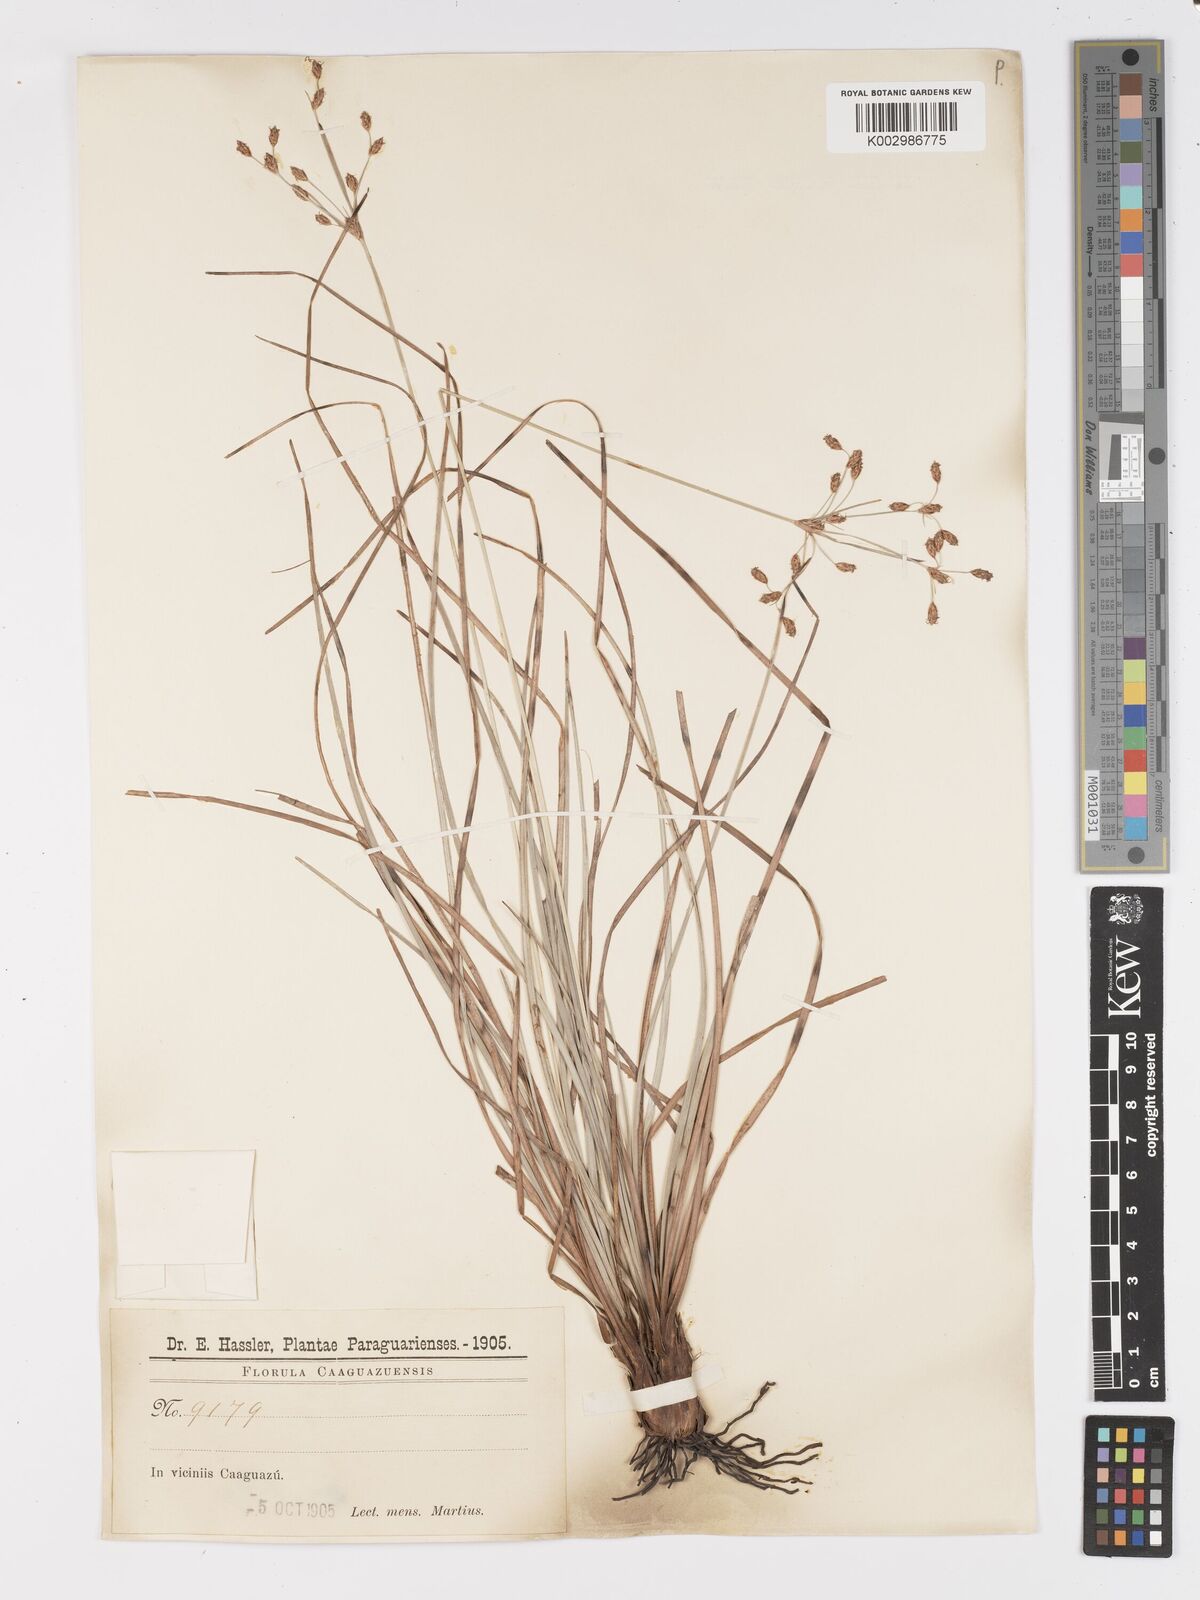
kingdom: Plantae
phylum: Tracheophyta
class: Liliopsida
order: Poales
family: Cyperaceae
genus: Fimbristylis
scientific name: Fimbristylis dichotoma
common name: Forked fimbry
